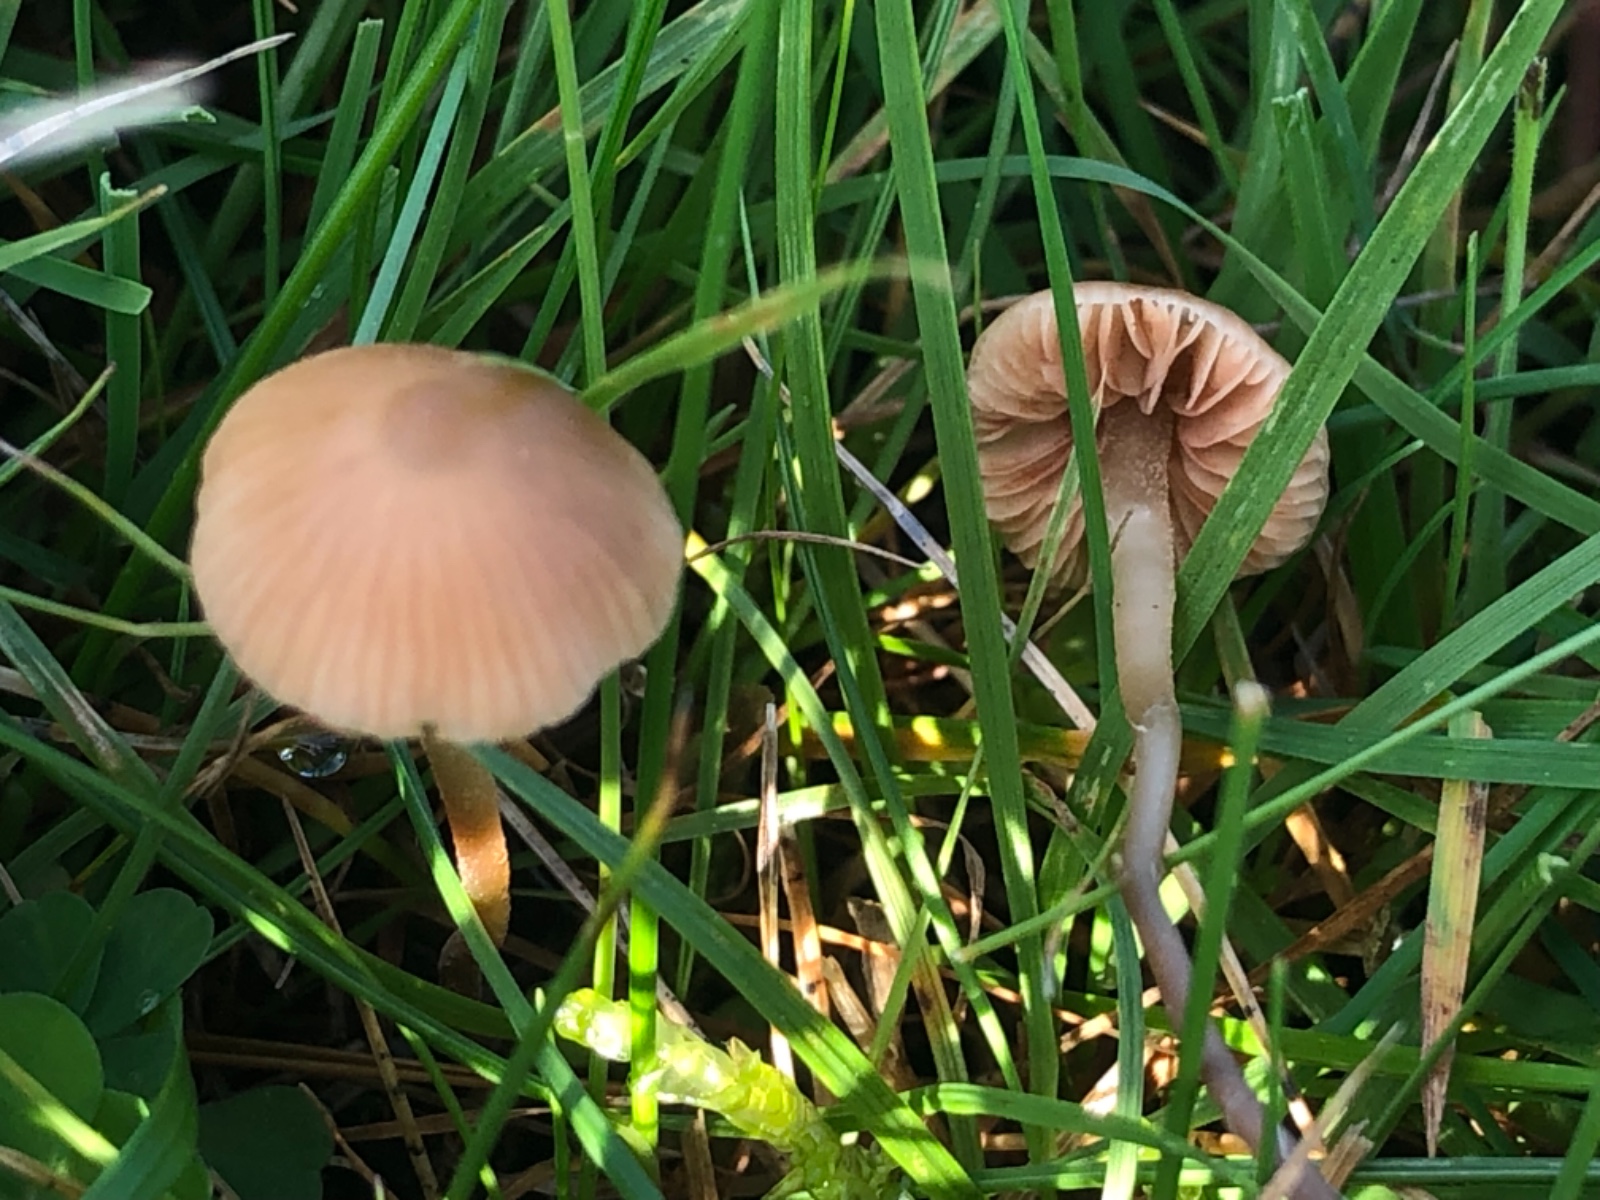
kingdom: Fungi
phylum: Basidiomycota
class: Agaricomycetes
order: Agaricales
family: Bolbitiaceae
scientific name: Bolbitiaceae
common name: gulhatfamilien
